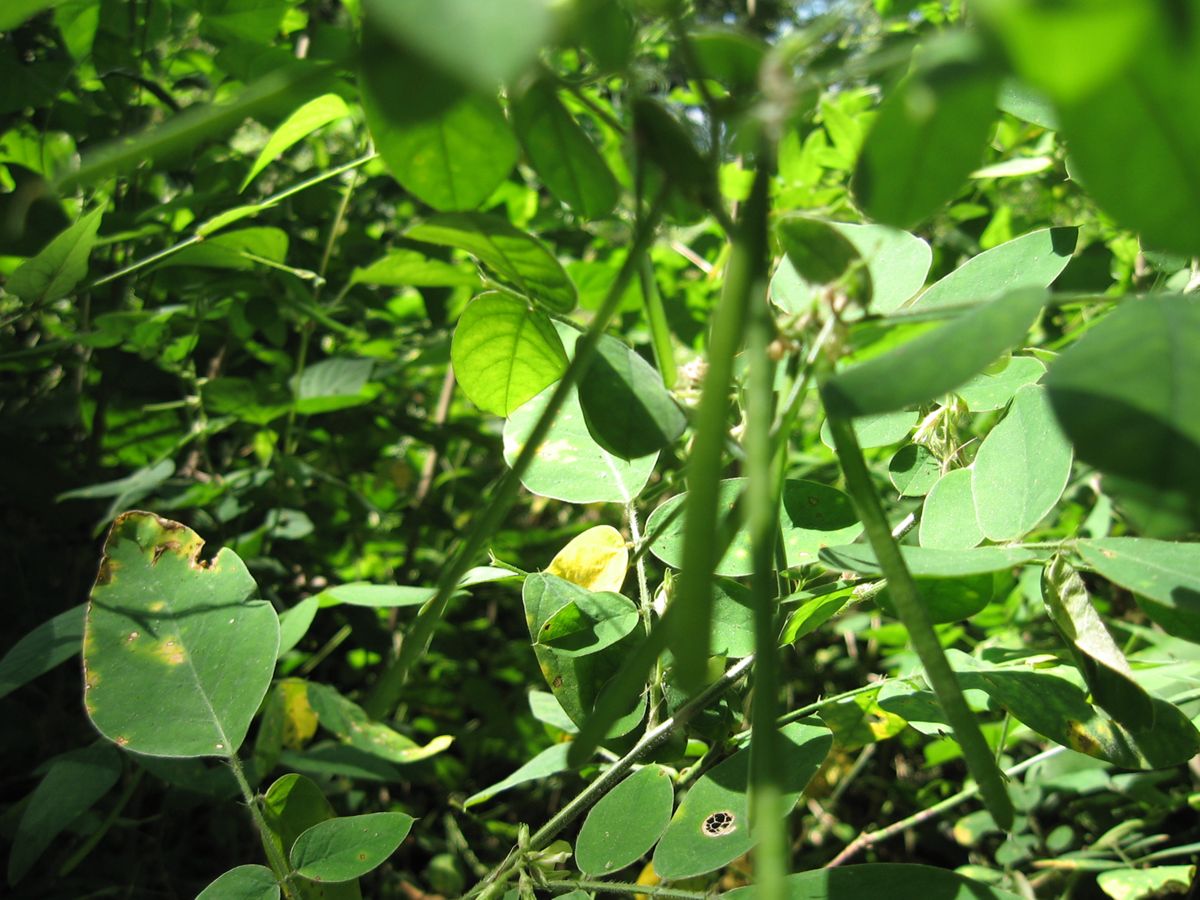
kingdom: Plantae
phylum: Tracheophyta
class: Magnoliopsida
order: Fabales
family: Fabaceae
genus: Coursetia
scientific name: Coursetia caribaea
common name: Anil falso
